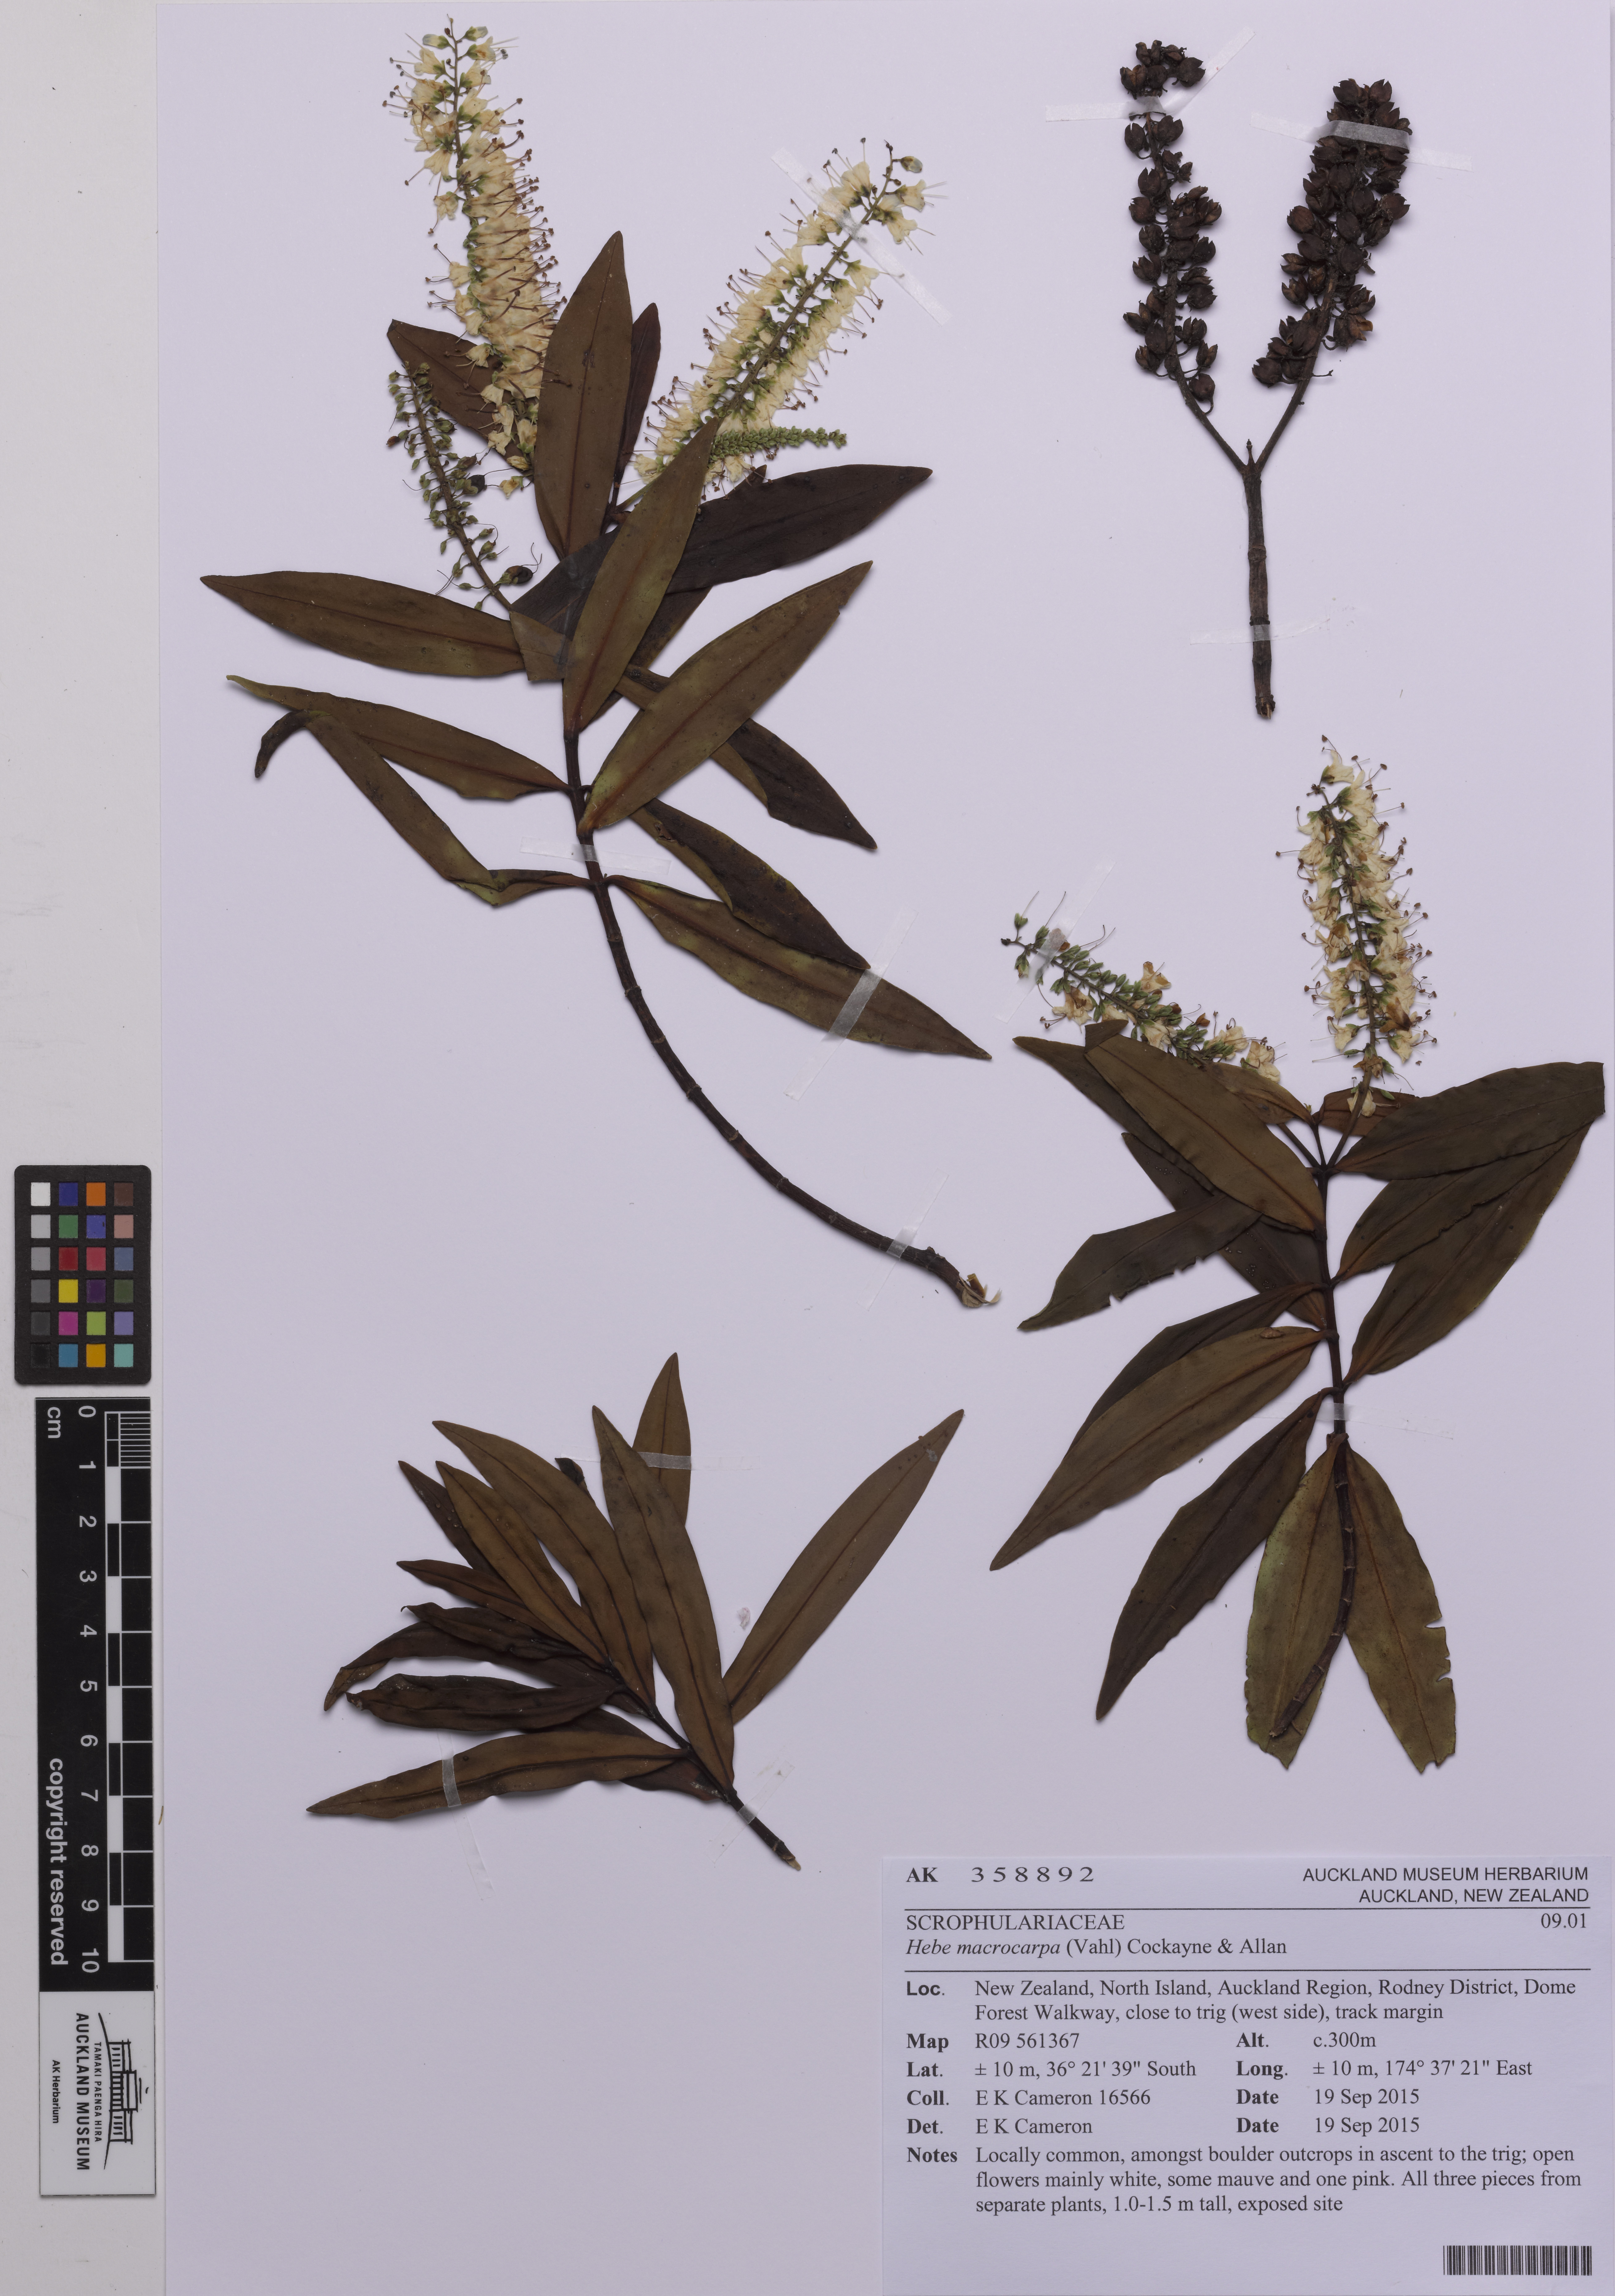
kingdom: Plantae
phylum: Tracheophyta
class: Magnoliopsida
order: Lamiales
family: Plantaginaceae
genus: Veronica
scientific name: Veronica macrocarpa
